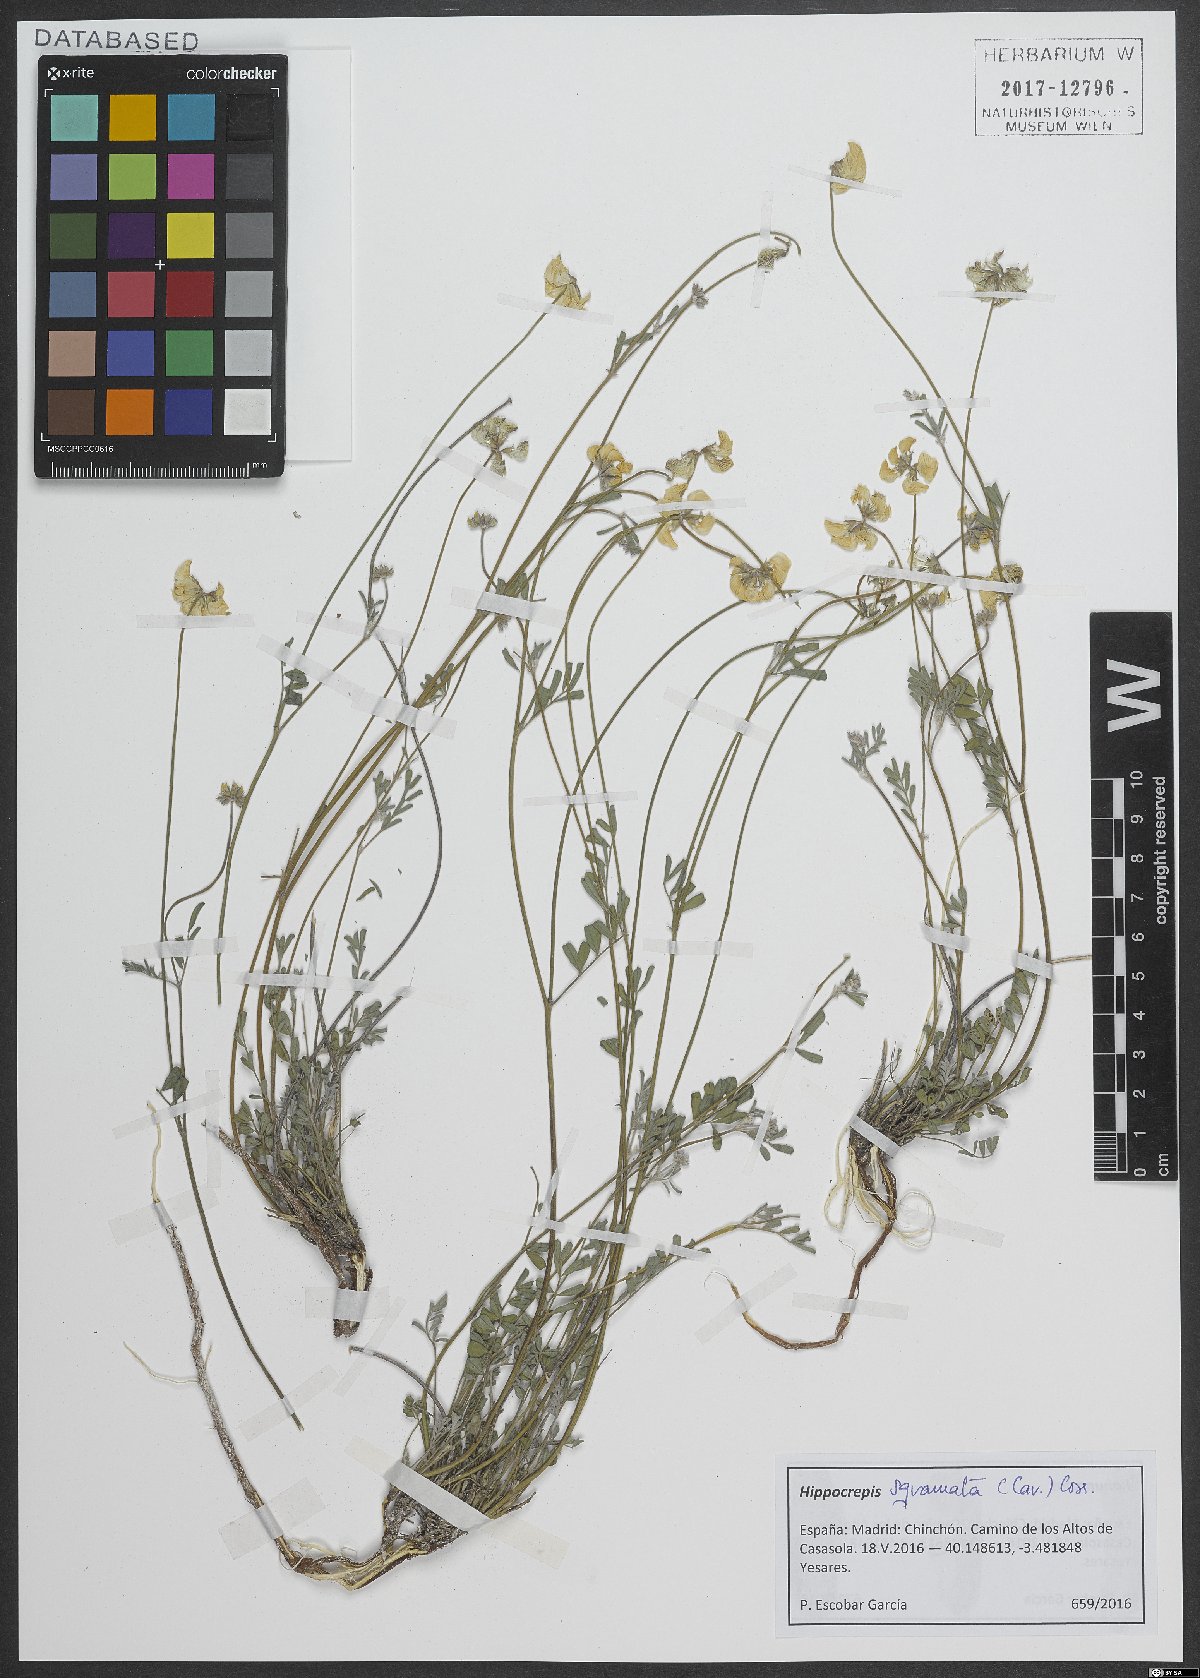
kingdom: Plantae
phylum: Tracheophyta
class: Magnoliopsida
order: Fabales
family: Fabaceae
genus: Hippocrepis
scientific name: Hippocrepis squamata
